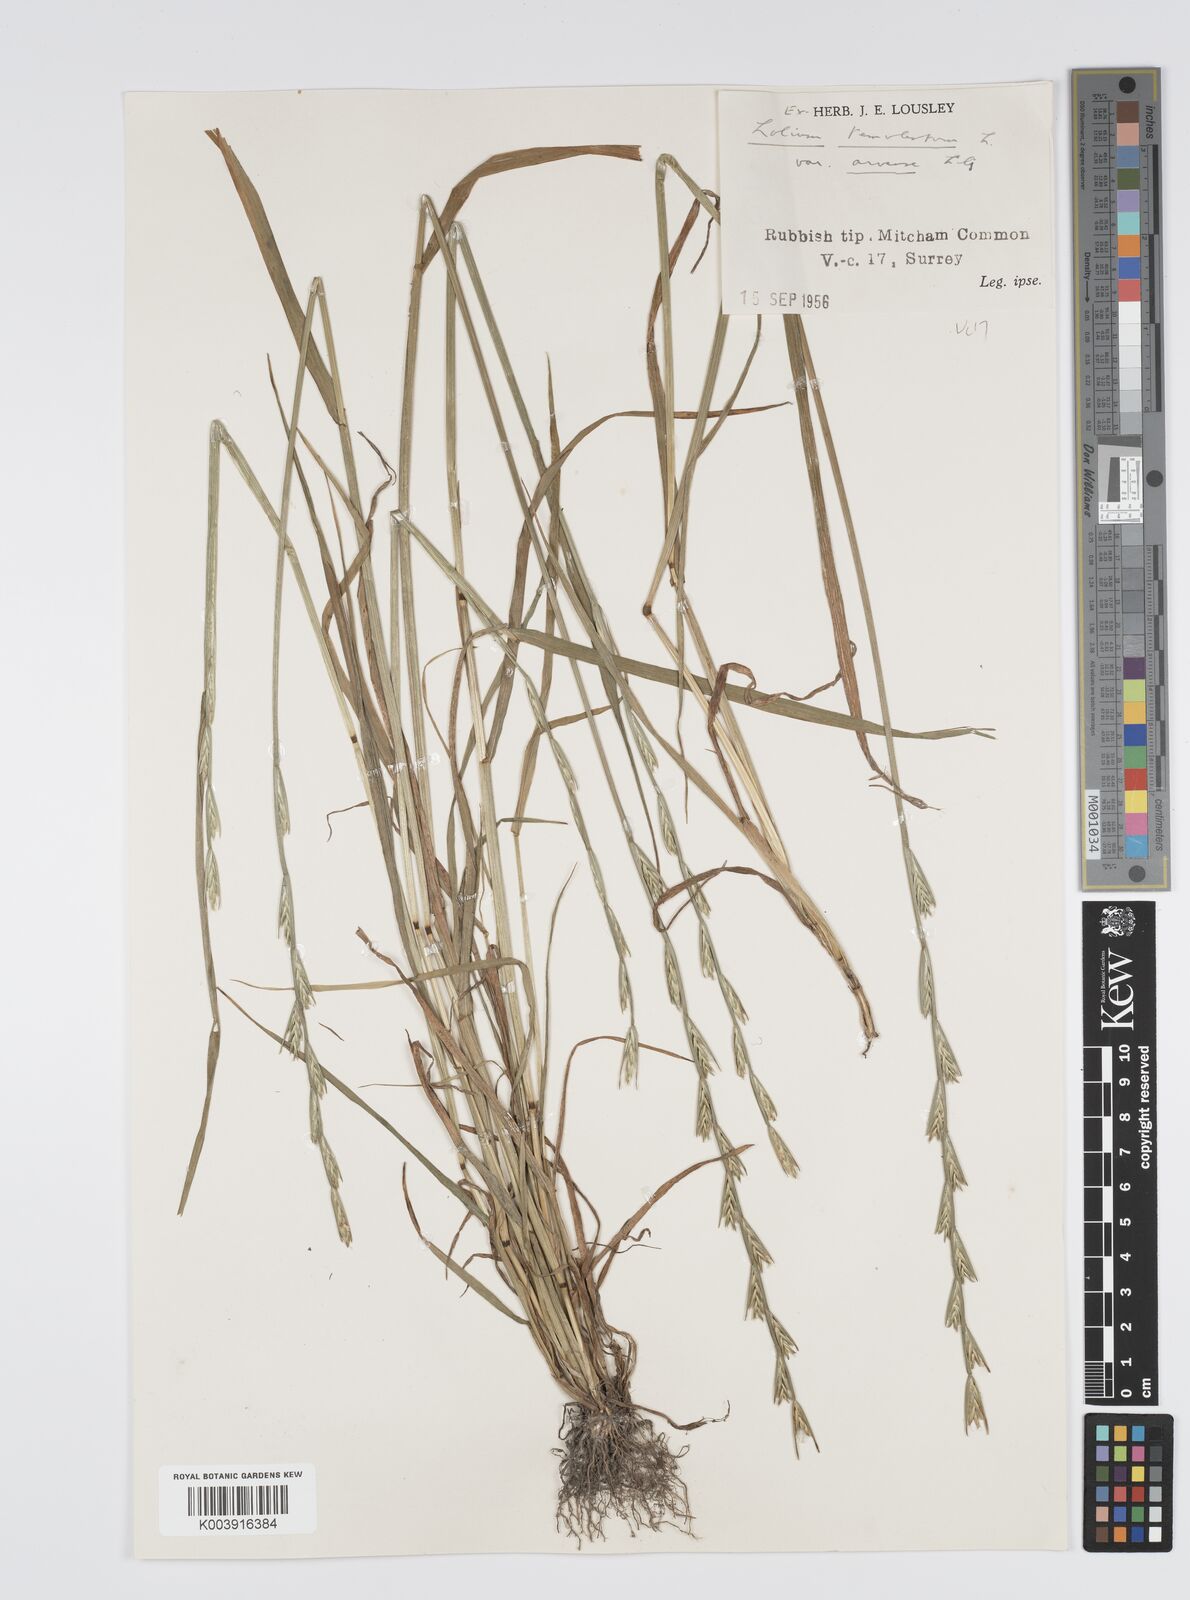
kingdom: Plantae
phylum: Tracheophyta
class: Liliopsida
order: Poales
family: Poaceae
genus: Lolium
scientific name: Lolium temulentum
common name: Darnel
